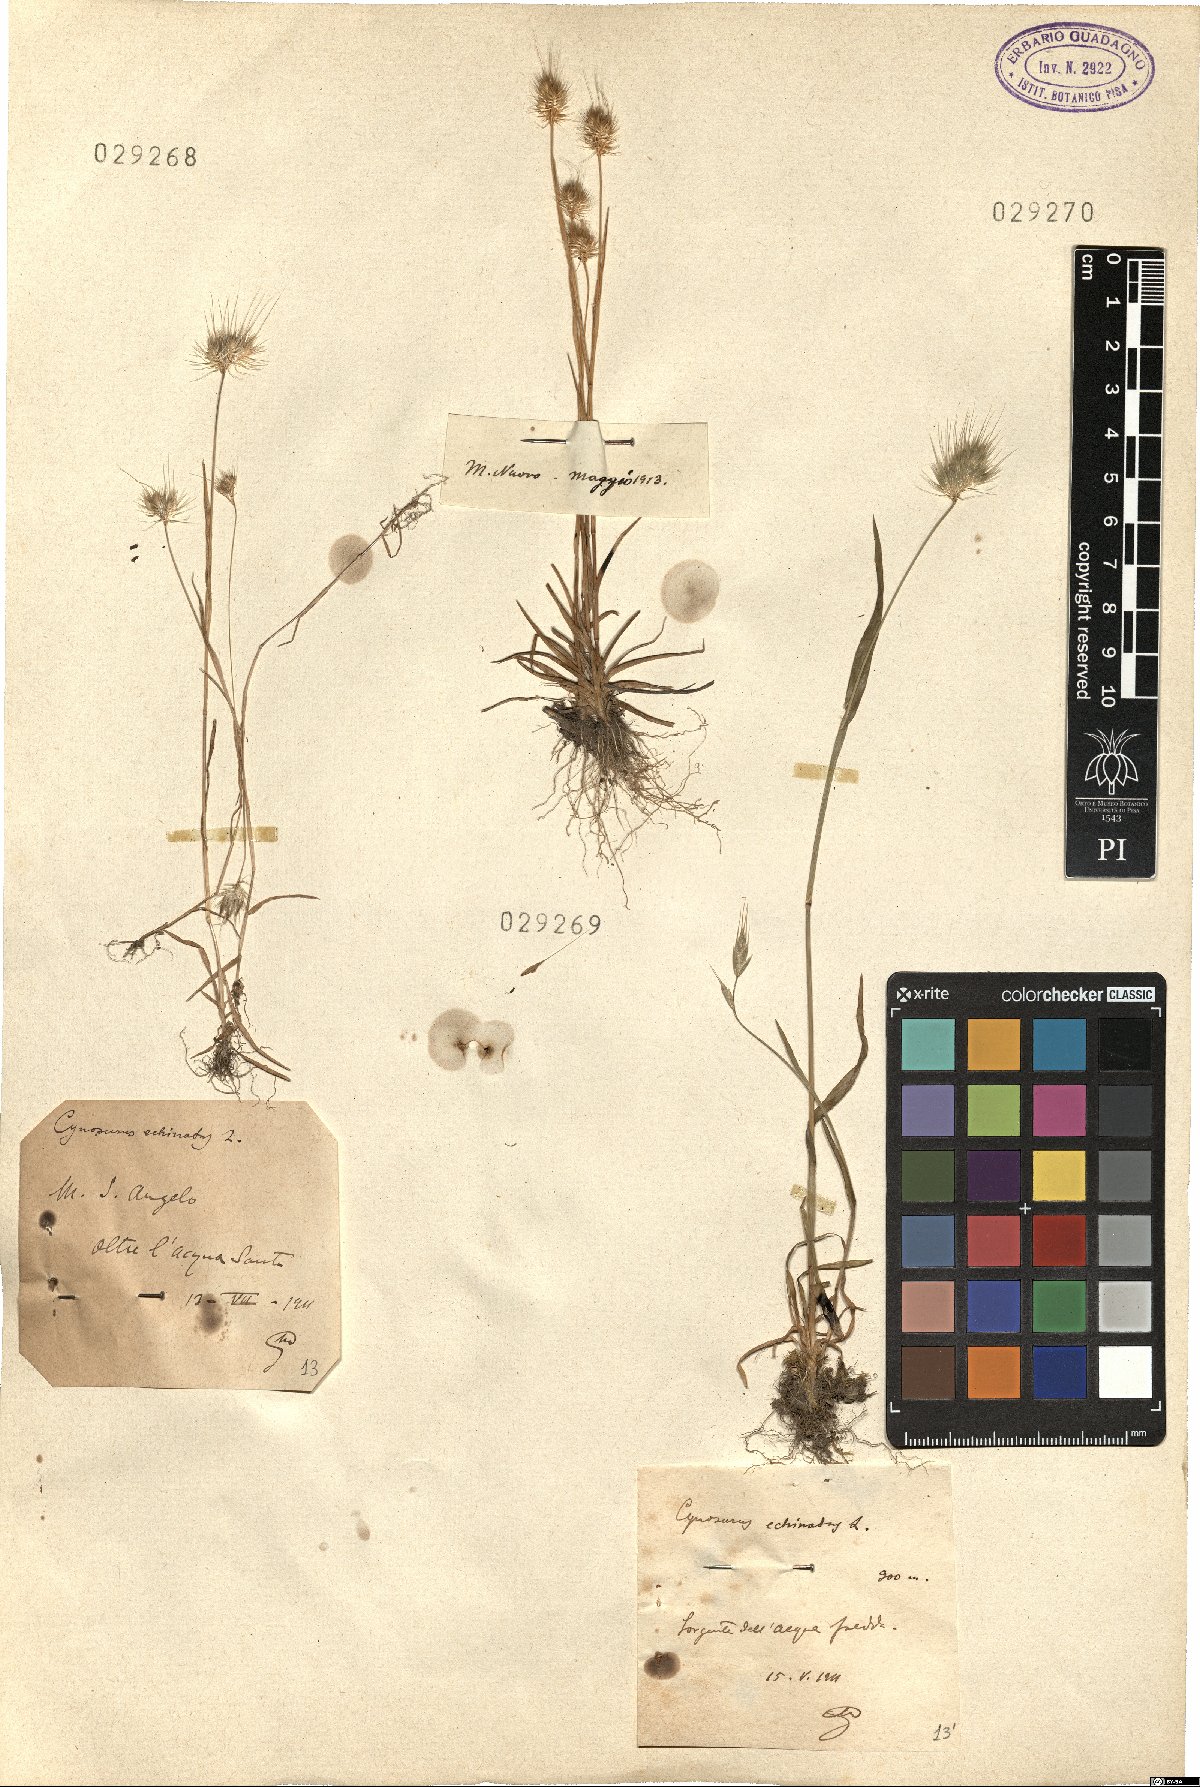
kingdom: Plantae
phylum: Tracheophyta
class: Liliopsida
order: Poales
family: Poaceae
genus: Cynosurus
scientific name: Cynosurus echinatus
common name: Rough dog's-tail
